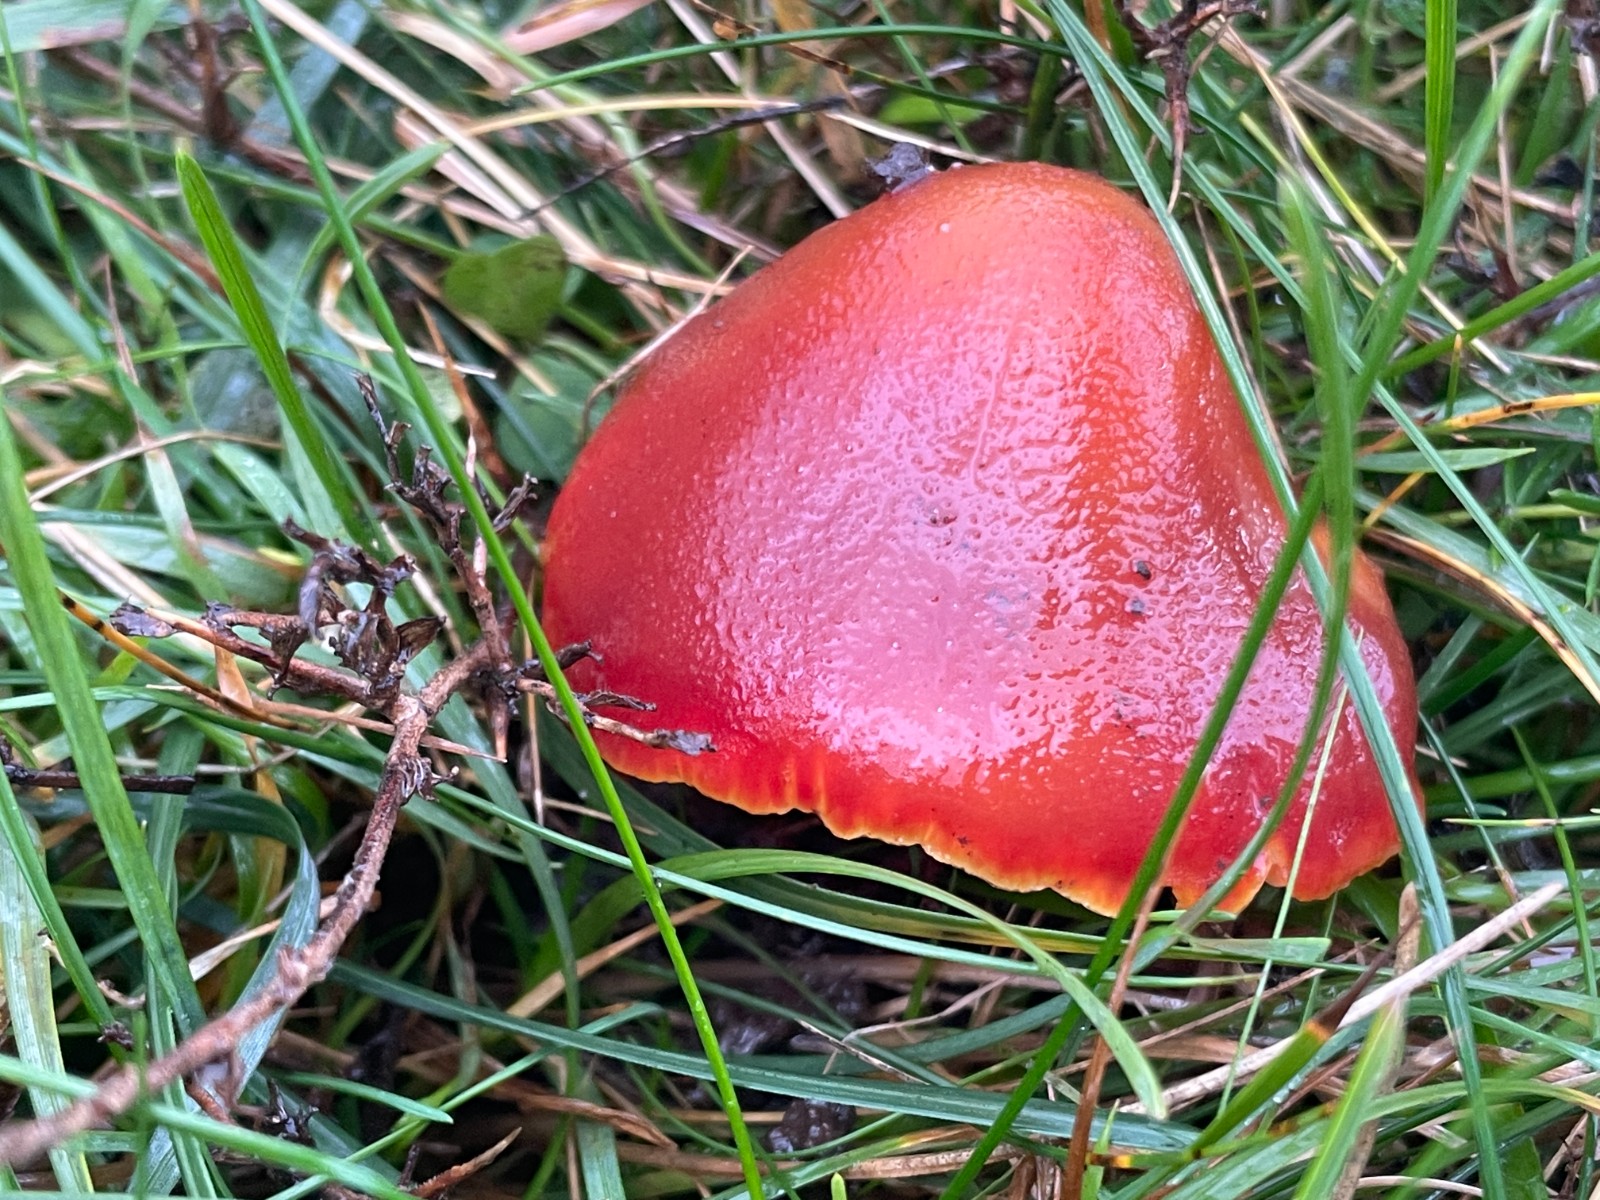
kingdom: Fungi
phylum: Basidiomycota
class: Agaricomycetes
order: Agaricales
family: Hygrophoraceae
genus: Hygrocybe
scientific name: Hygrocybe punicea
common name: skarlagen-vokshat
